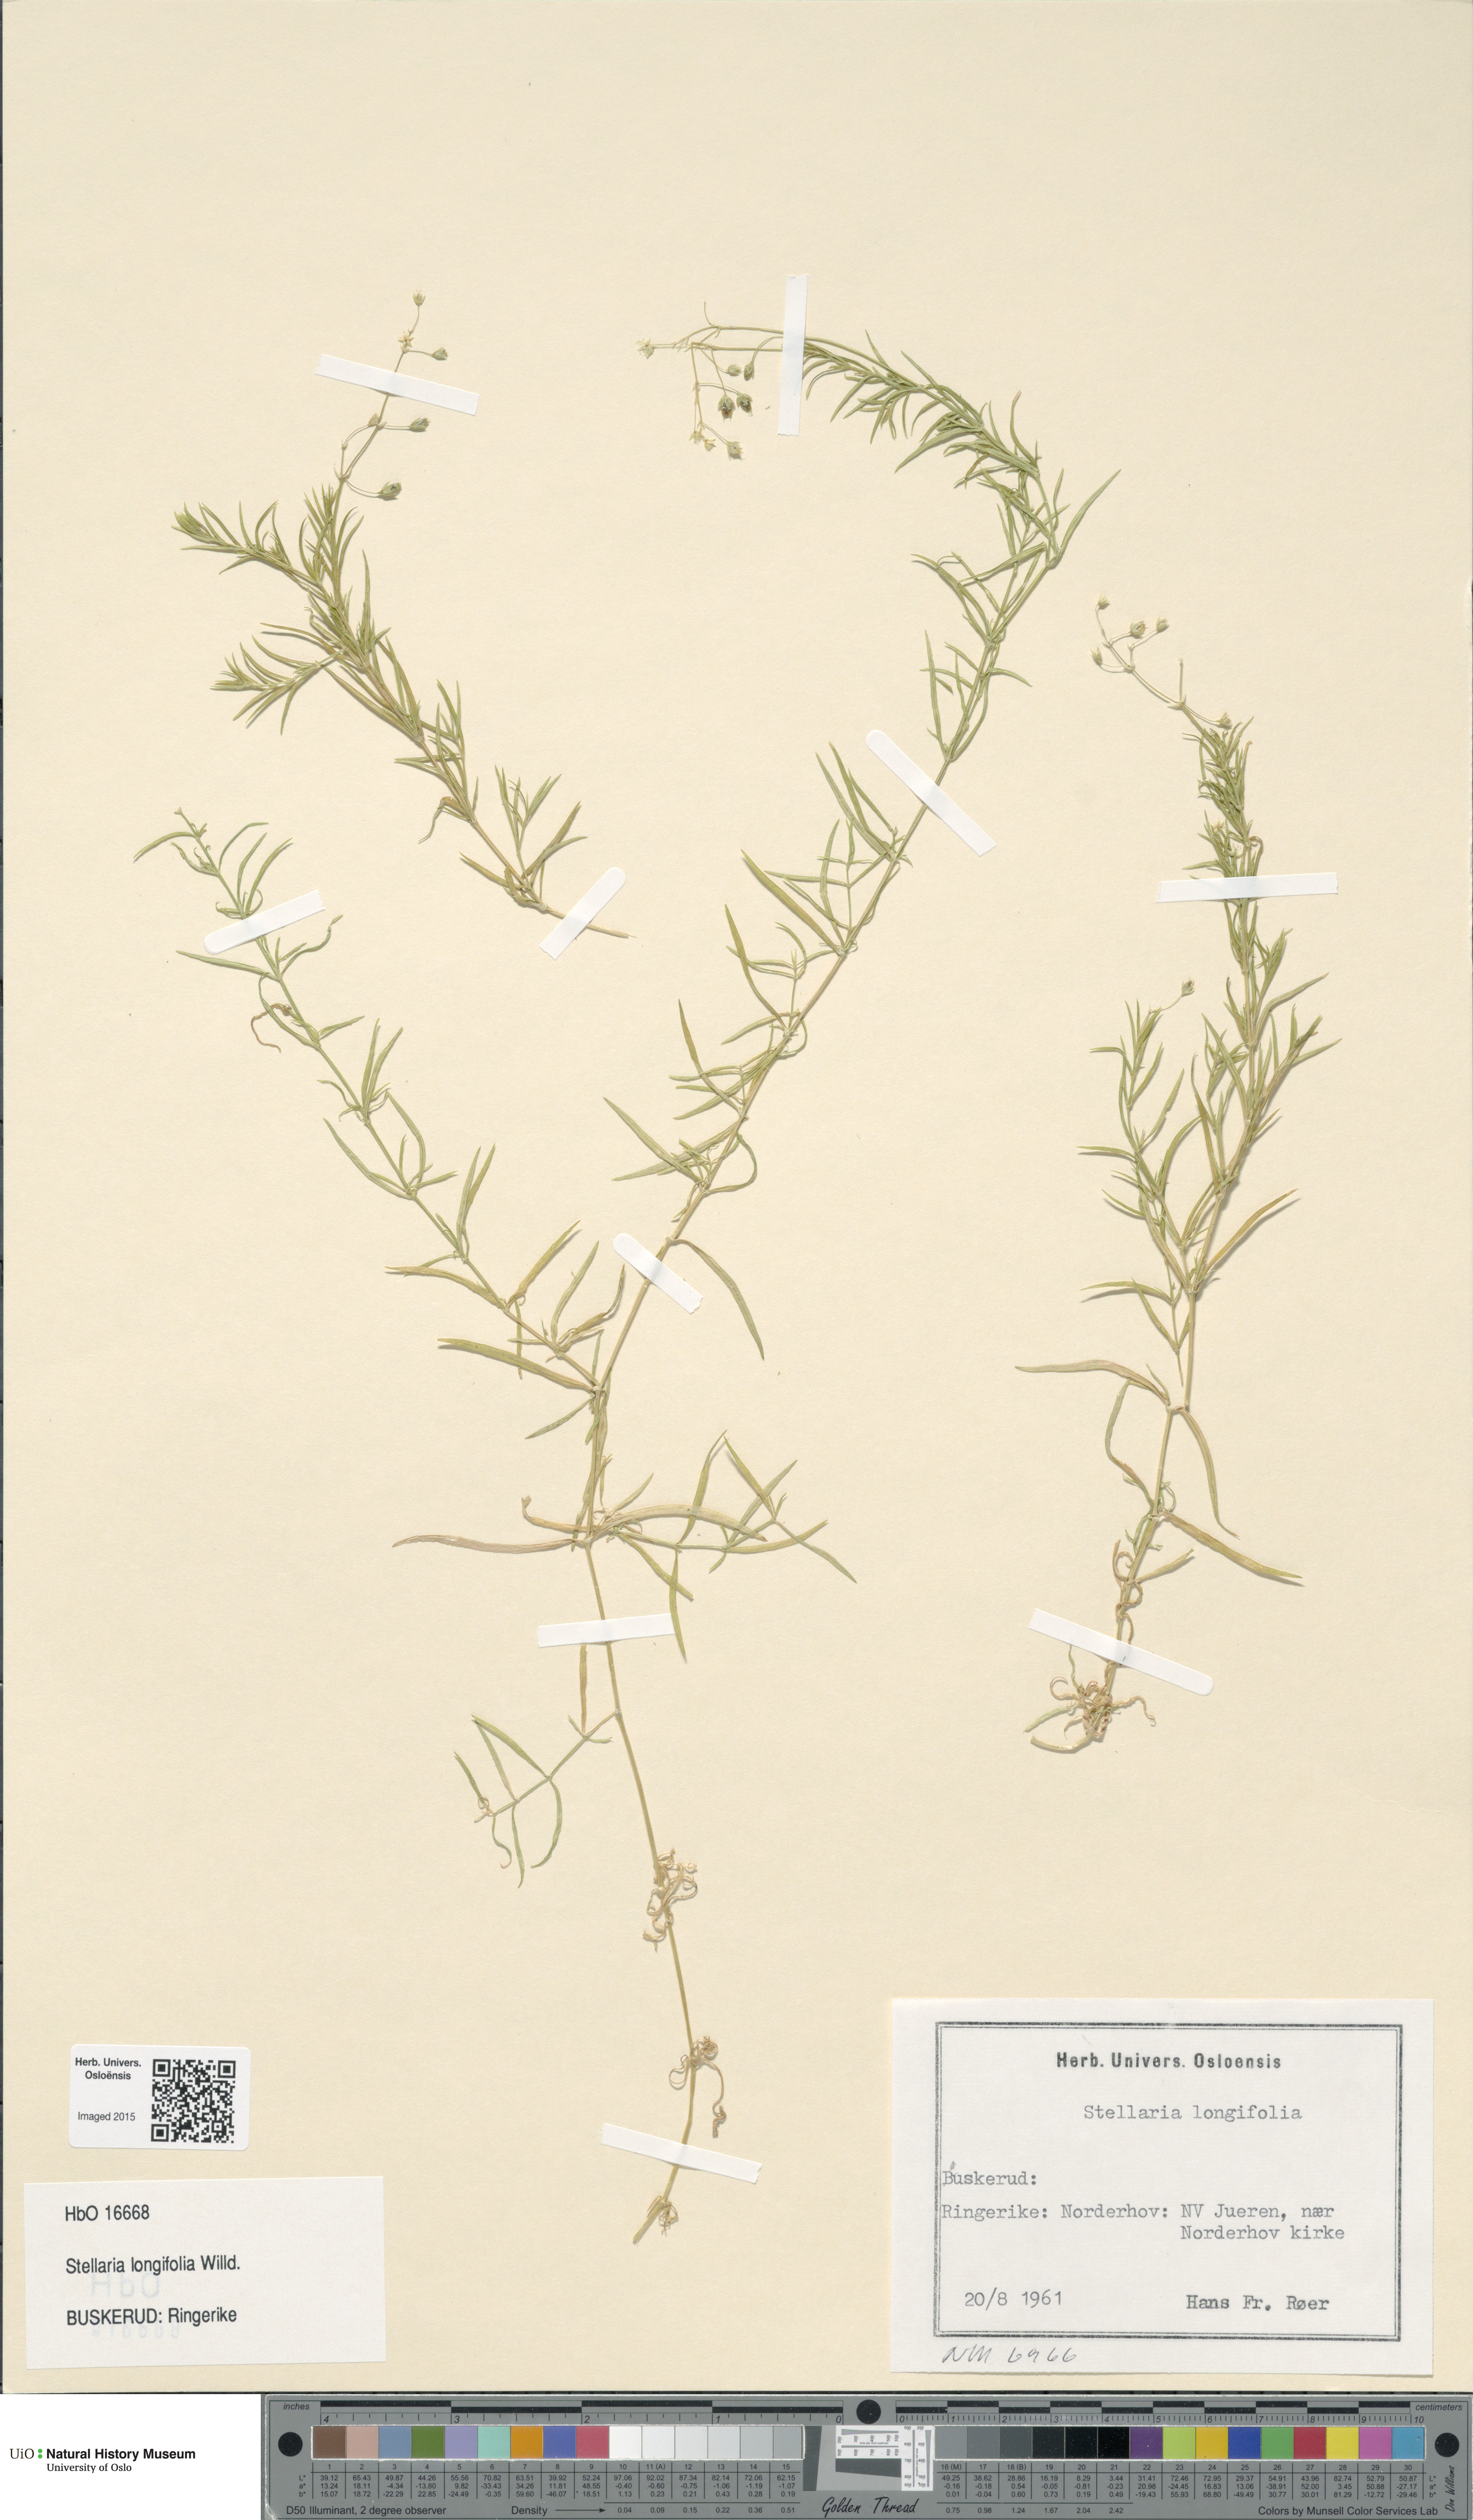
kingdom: Plantae
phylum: Tracheophyta
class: Magnoliopsida
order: Caryophyllales
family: Caryophyllaceae
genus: Stellaria
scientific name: Stellaria longifolia
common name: Long-leaved chickweed
